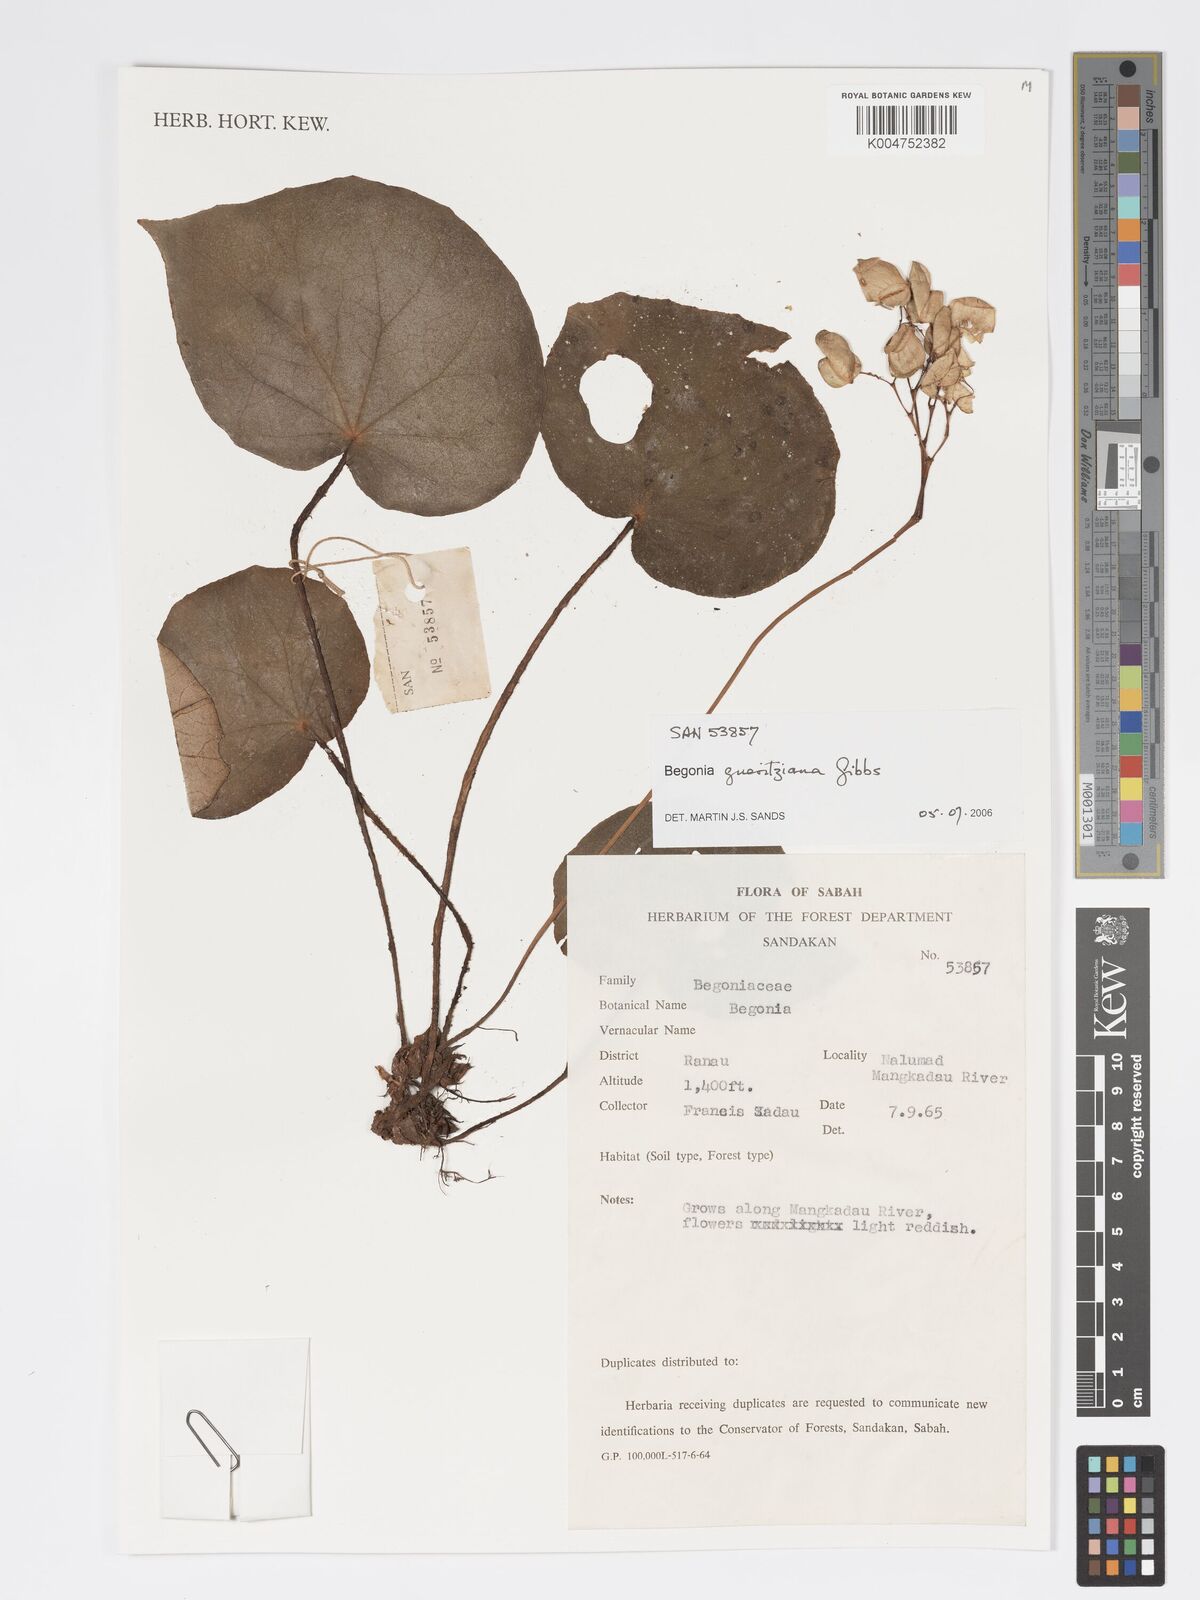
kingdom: Plantae
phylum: Tracheophyta
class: Magnoliopsida
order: Cucurbitales
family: Begoniaceae
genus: Begonia
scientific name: Begonia gueritziana
